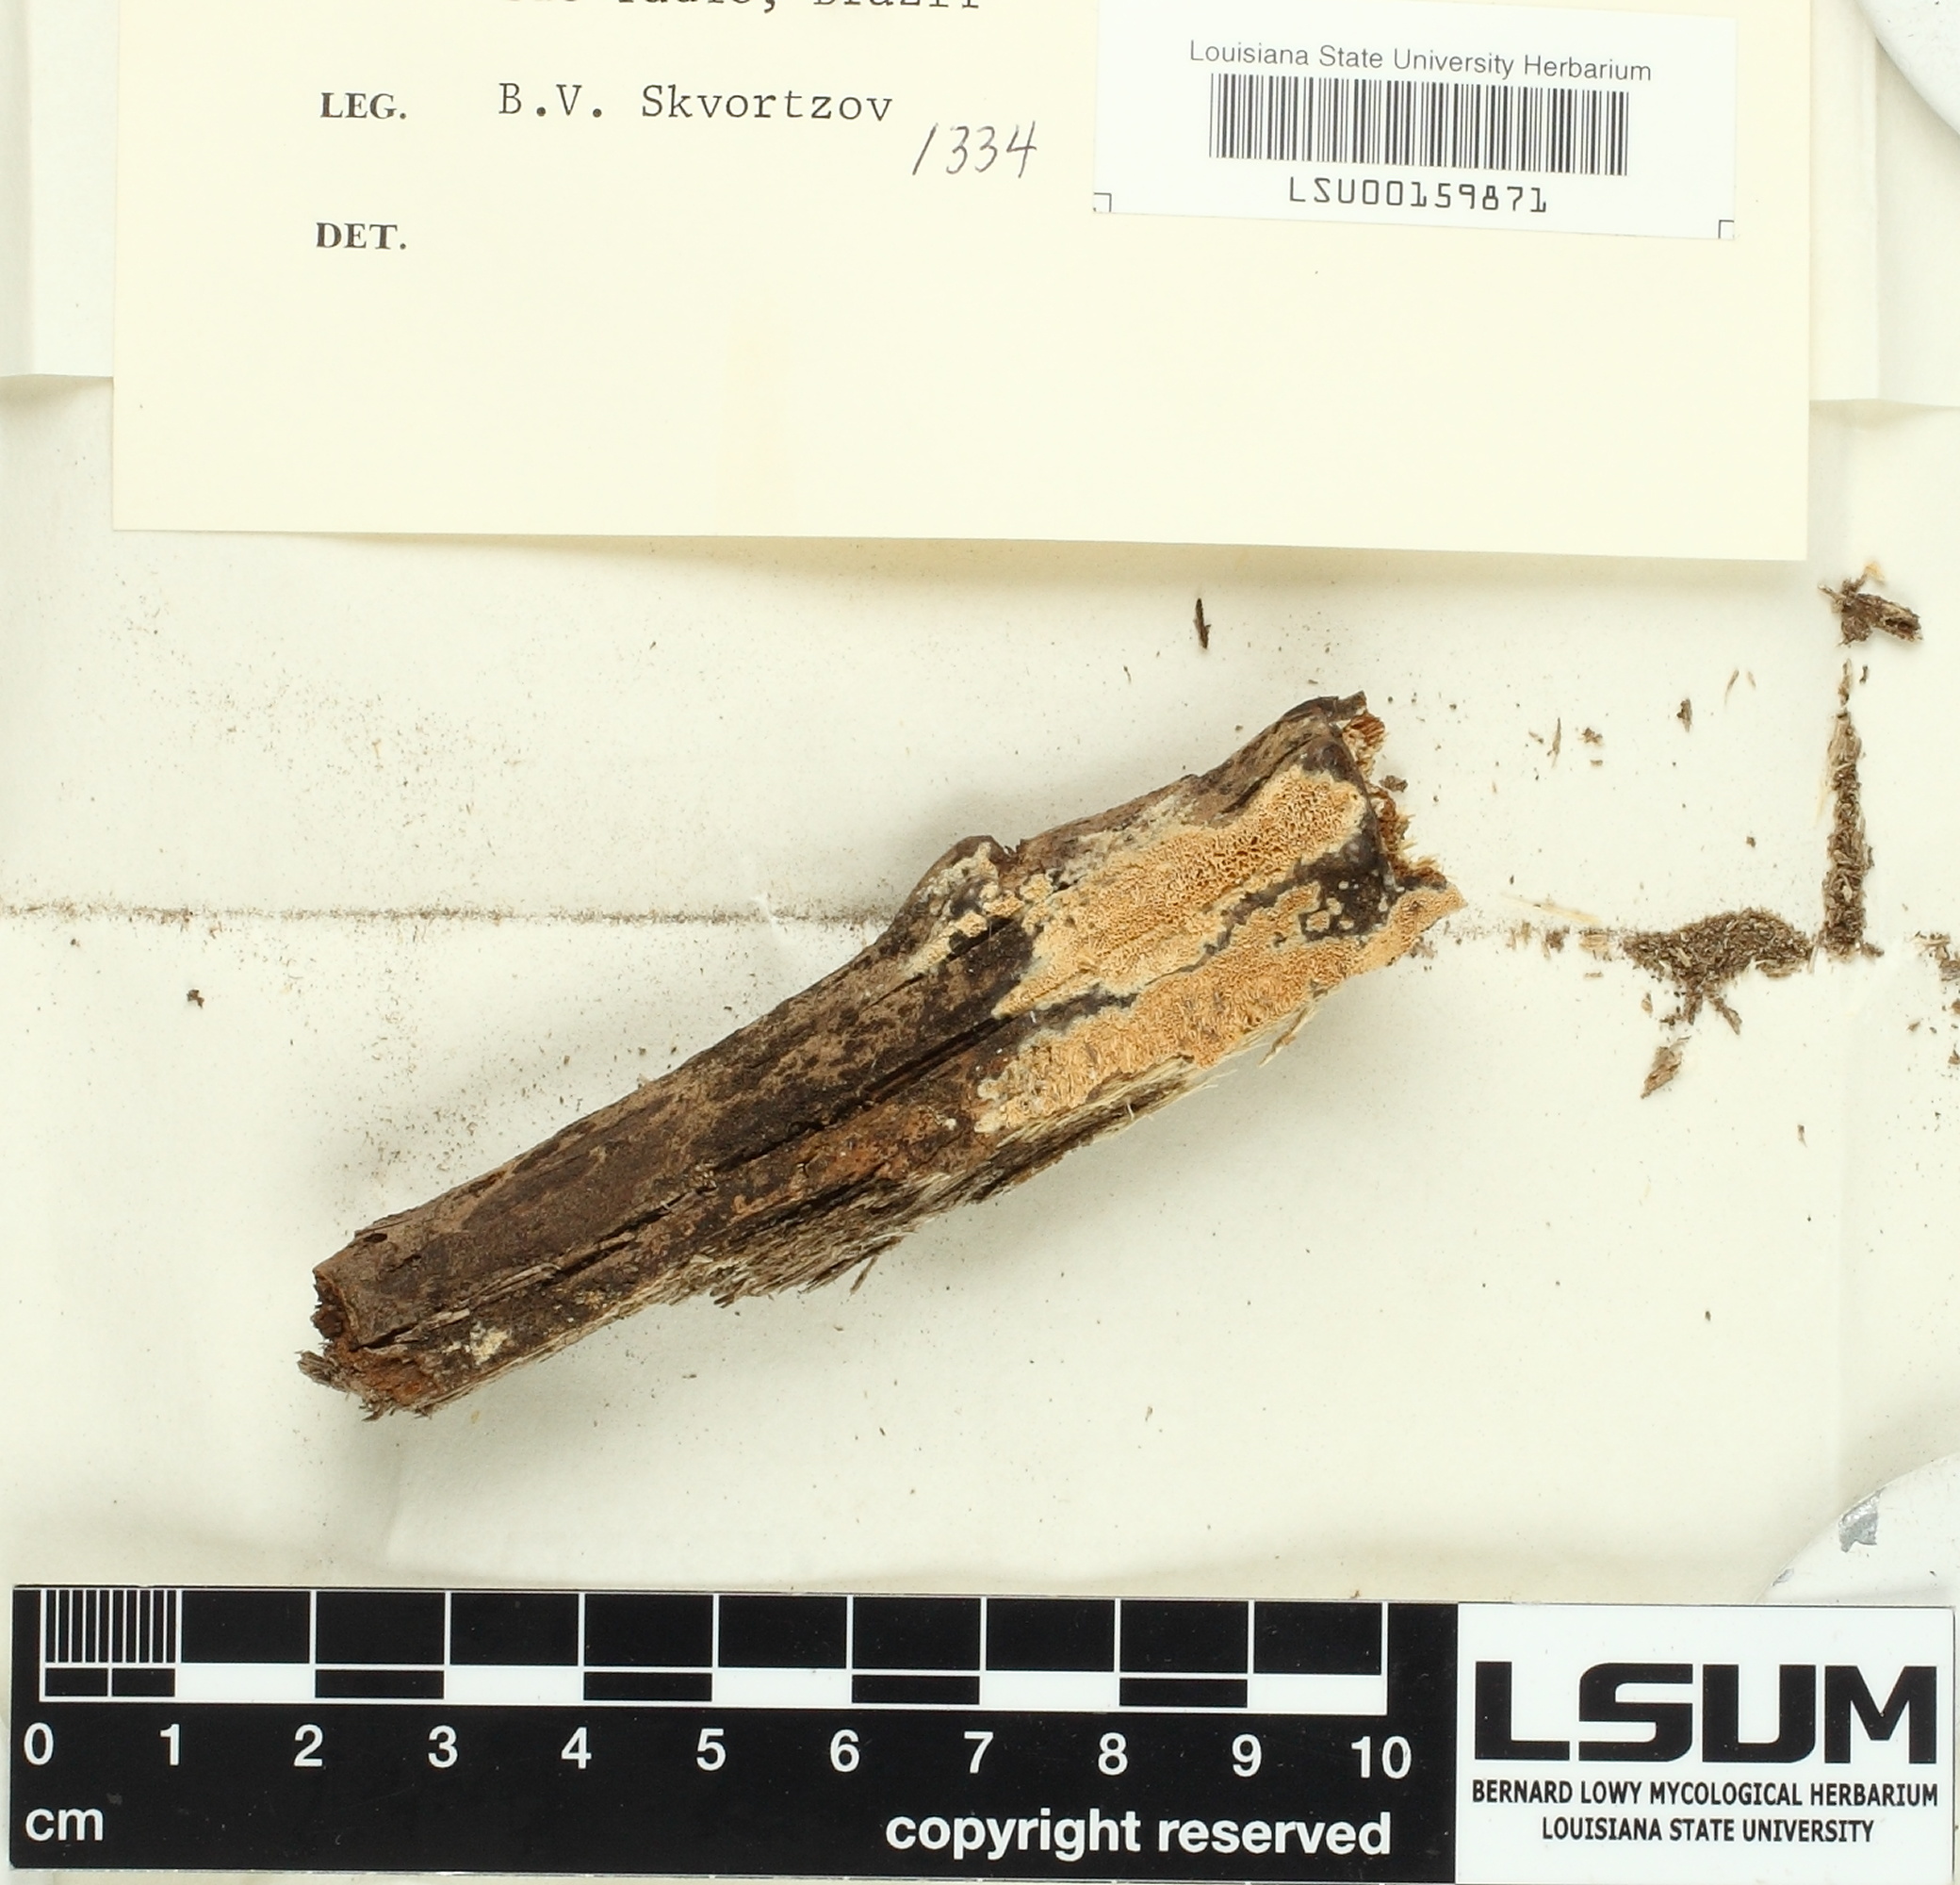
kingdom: Fungi
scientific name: Fungi
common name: Fungi
